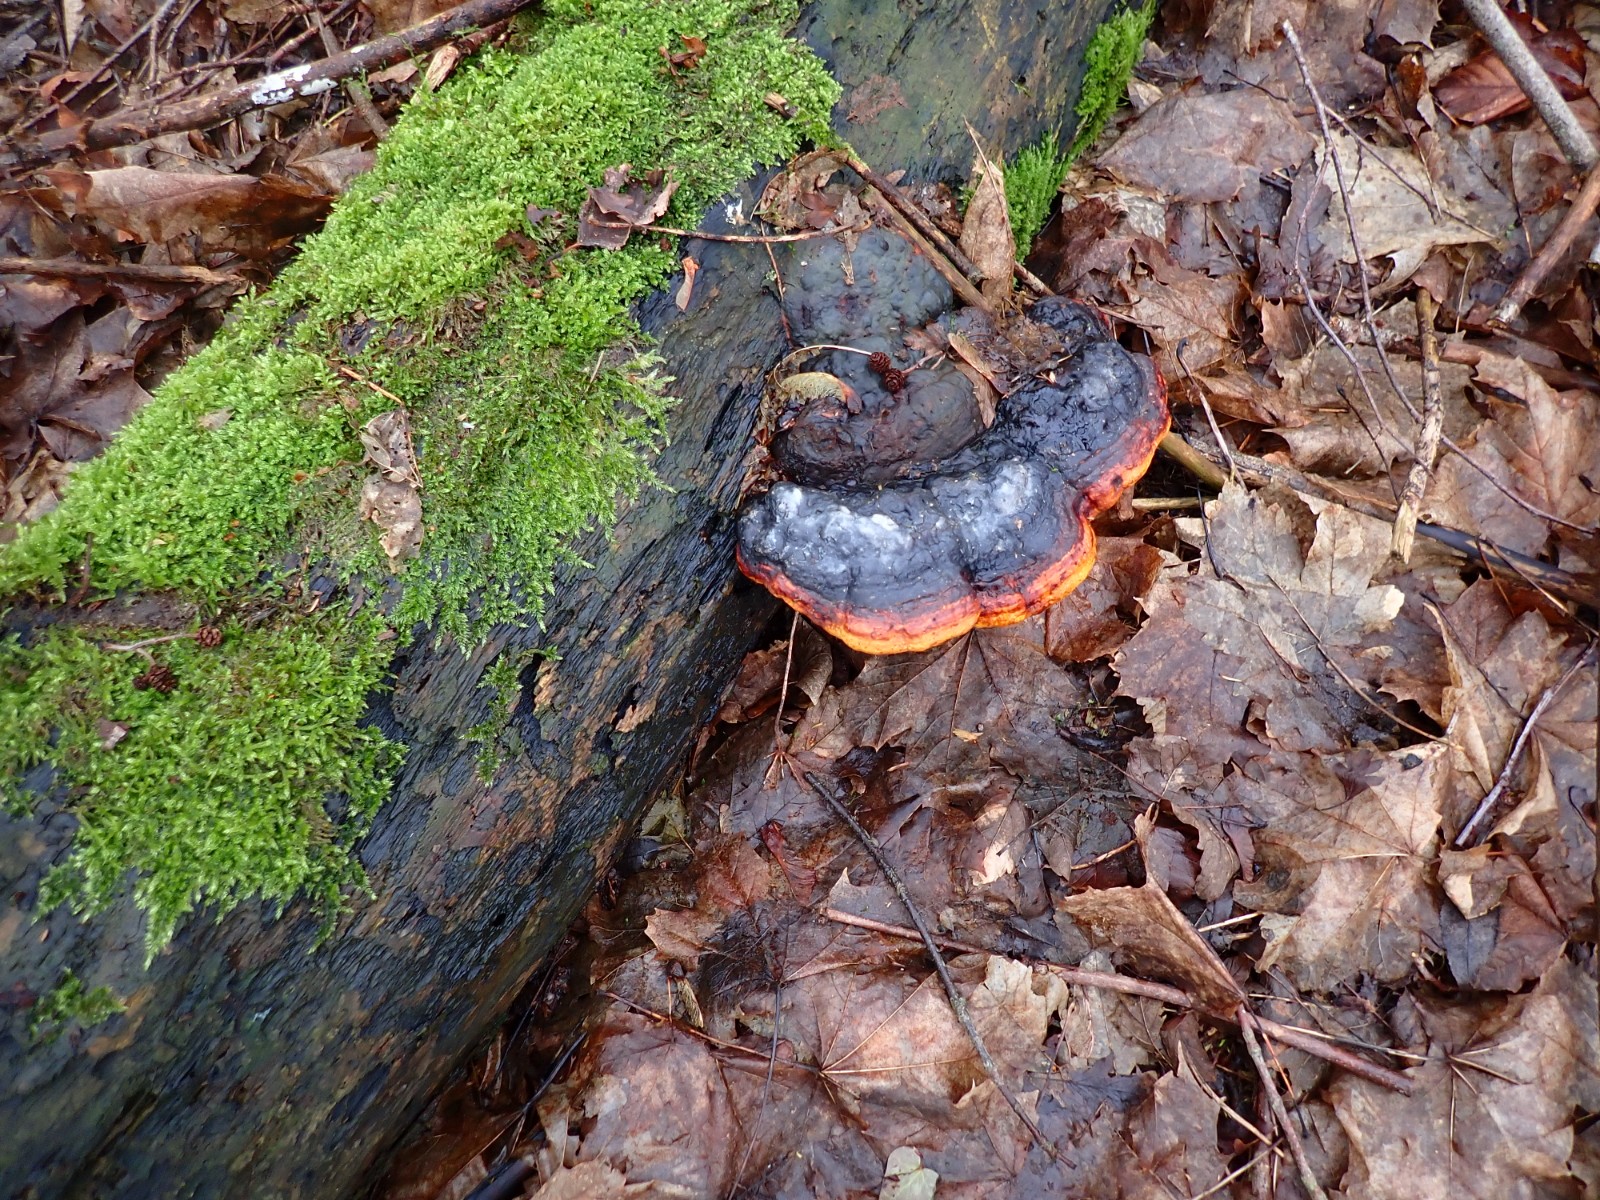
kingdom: Fungi
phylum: Basidiomycota
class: Agaricomycetes
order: Polyporales
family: Fomitopsidaceae
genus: Fomitopsis
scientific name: Fomitopsis pinicola
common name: randbæltet hovporesvamp
